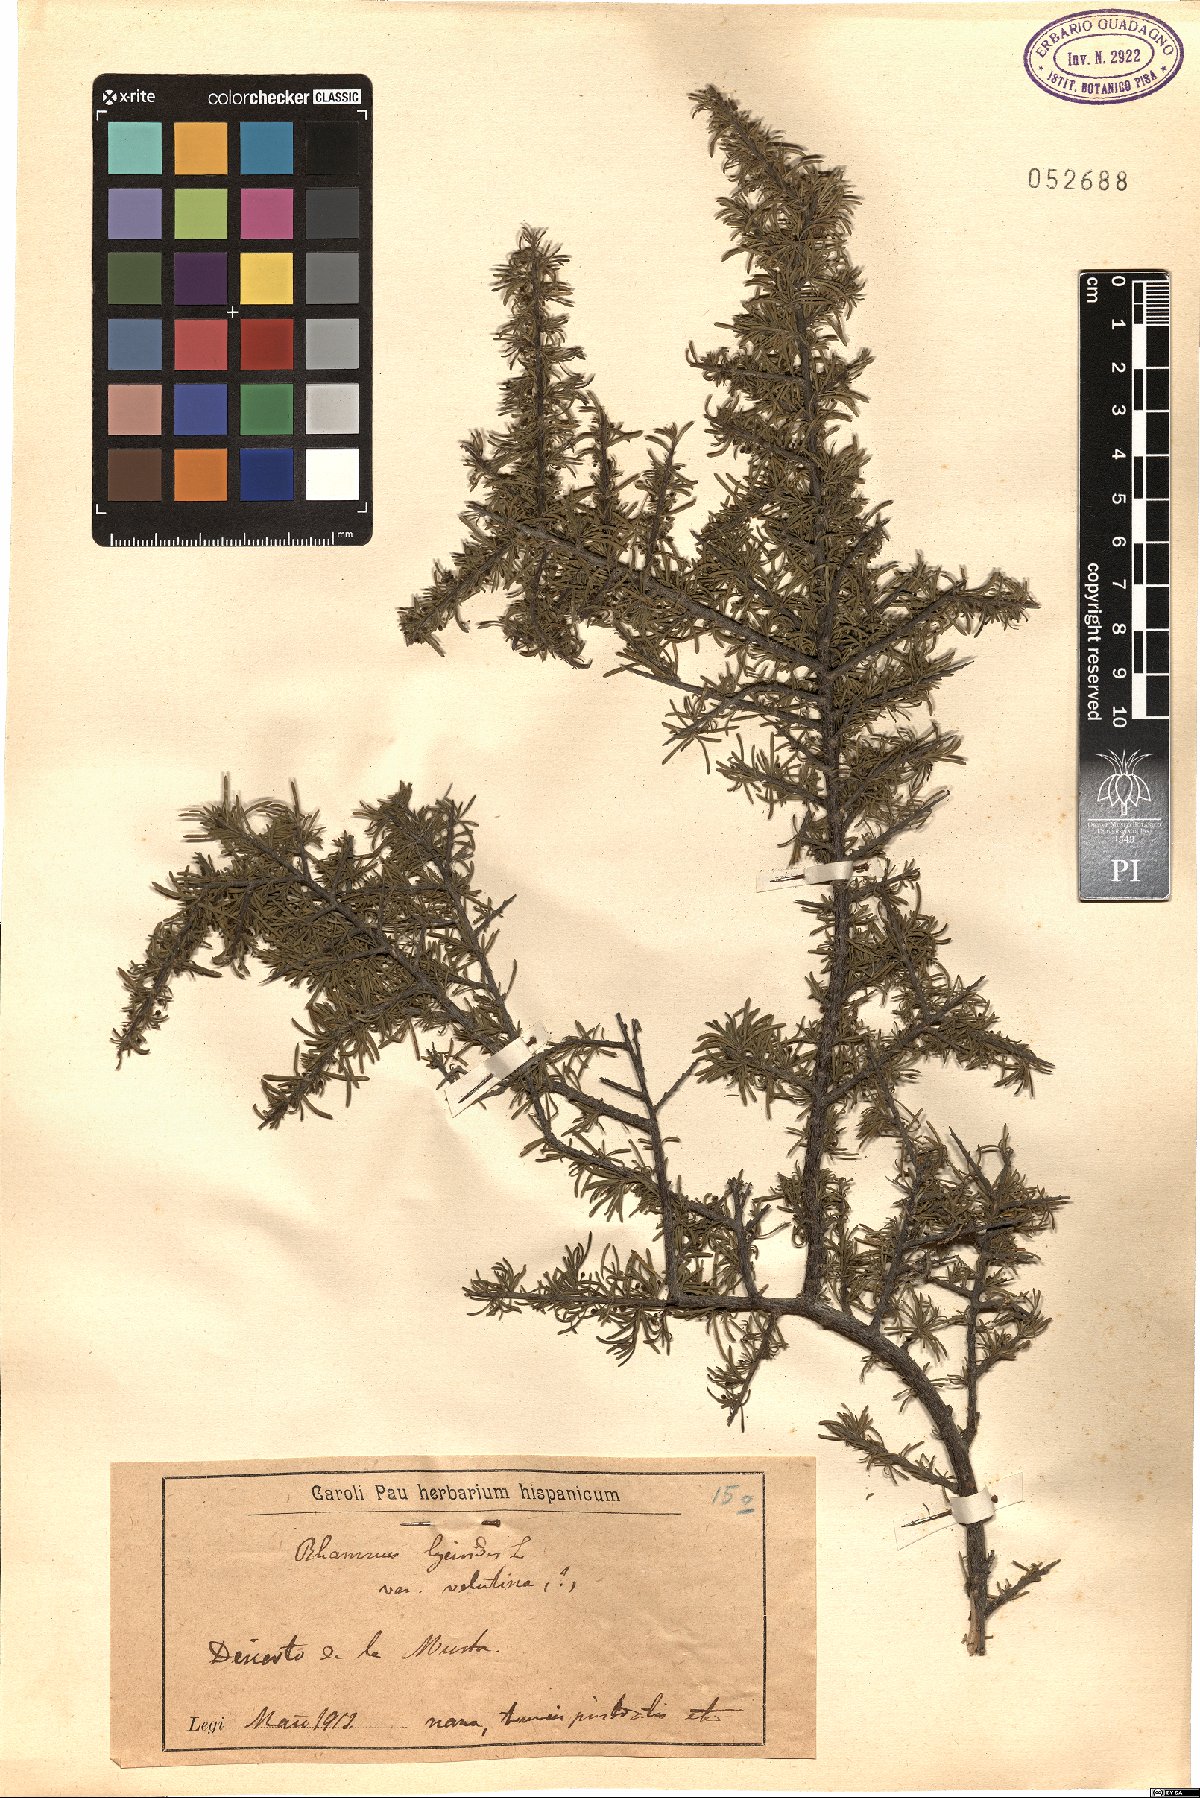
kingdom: Plantae
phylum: Tracheophyta
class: Magnoliopsida
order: Rosales
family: Rhamnaceae
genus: Rhamnus
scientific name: Rhamnus lycioides
